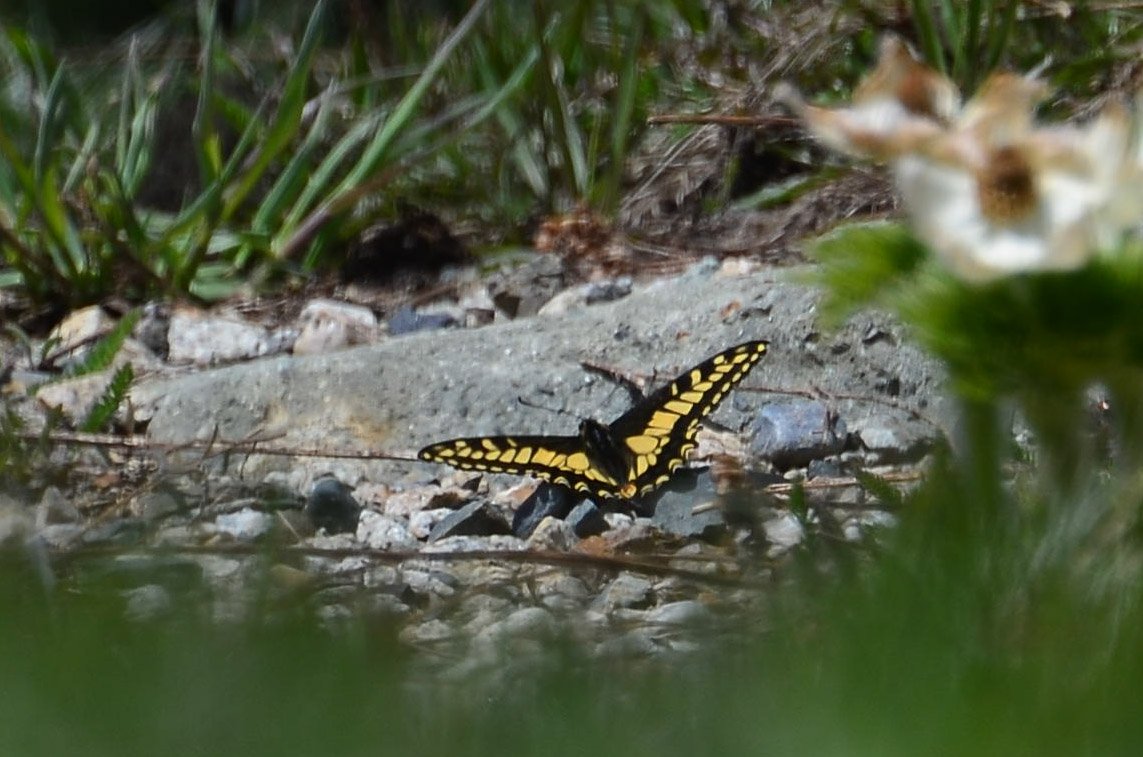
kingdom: Animalia
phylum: Arthropoda
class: Insecta
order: Lepidoptera
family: Papilionidae
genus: Papilio
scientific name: Papilio zelicaon
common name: Anise Swallowtail
